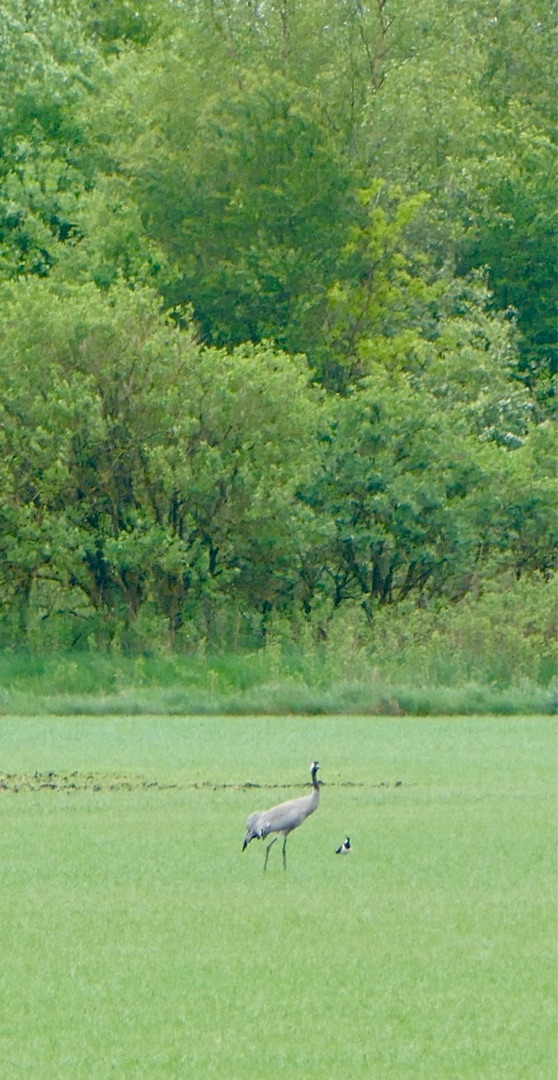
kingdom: Animalia
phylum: Chordata
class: Aves
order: Gruiformes
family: Gruidae
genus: Grus
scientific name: Grus grus
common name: Trane
